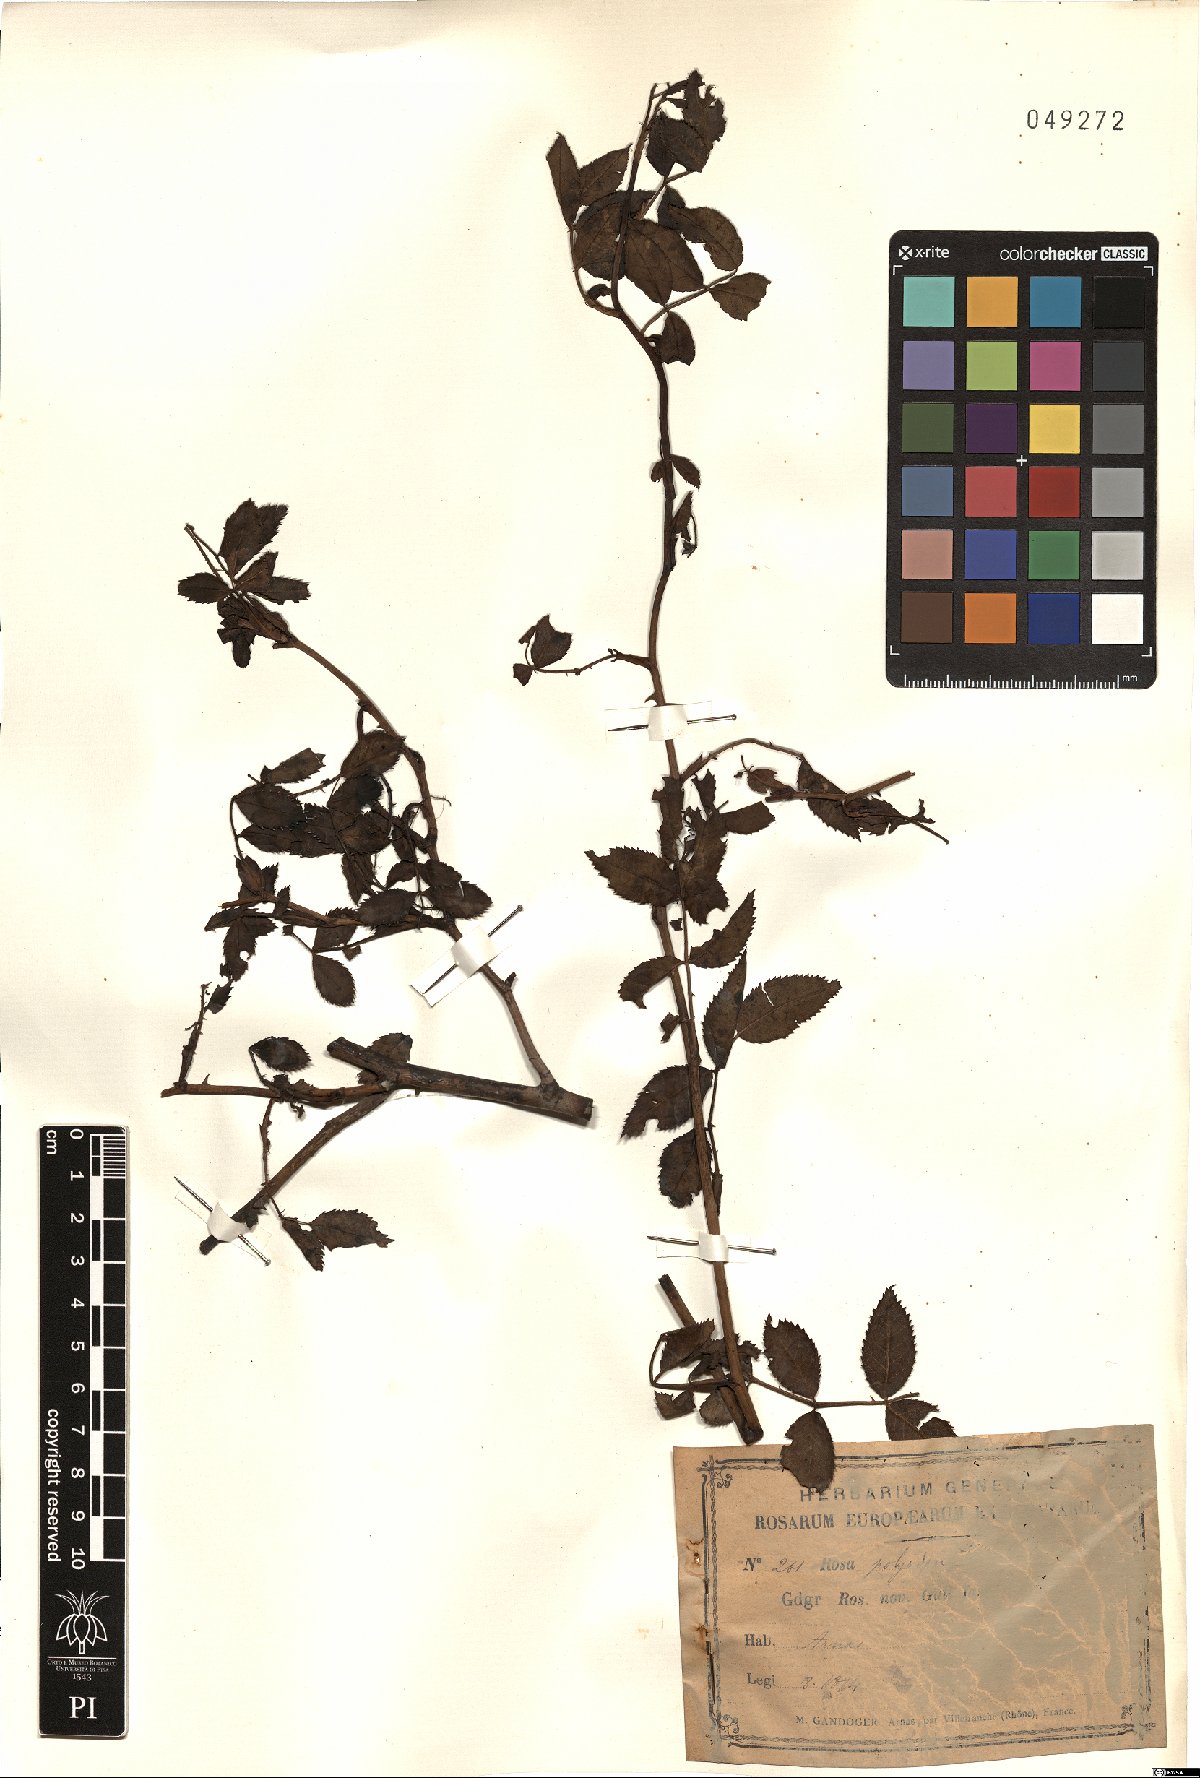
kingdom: Plantae
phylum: Tracheophyta
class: Magnoliopsida
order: Rosales
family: Rosaceae
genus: Rosa
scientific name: Rosa canina
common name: Dog rose
